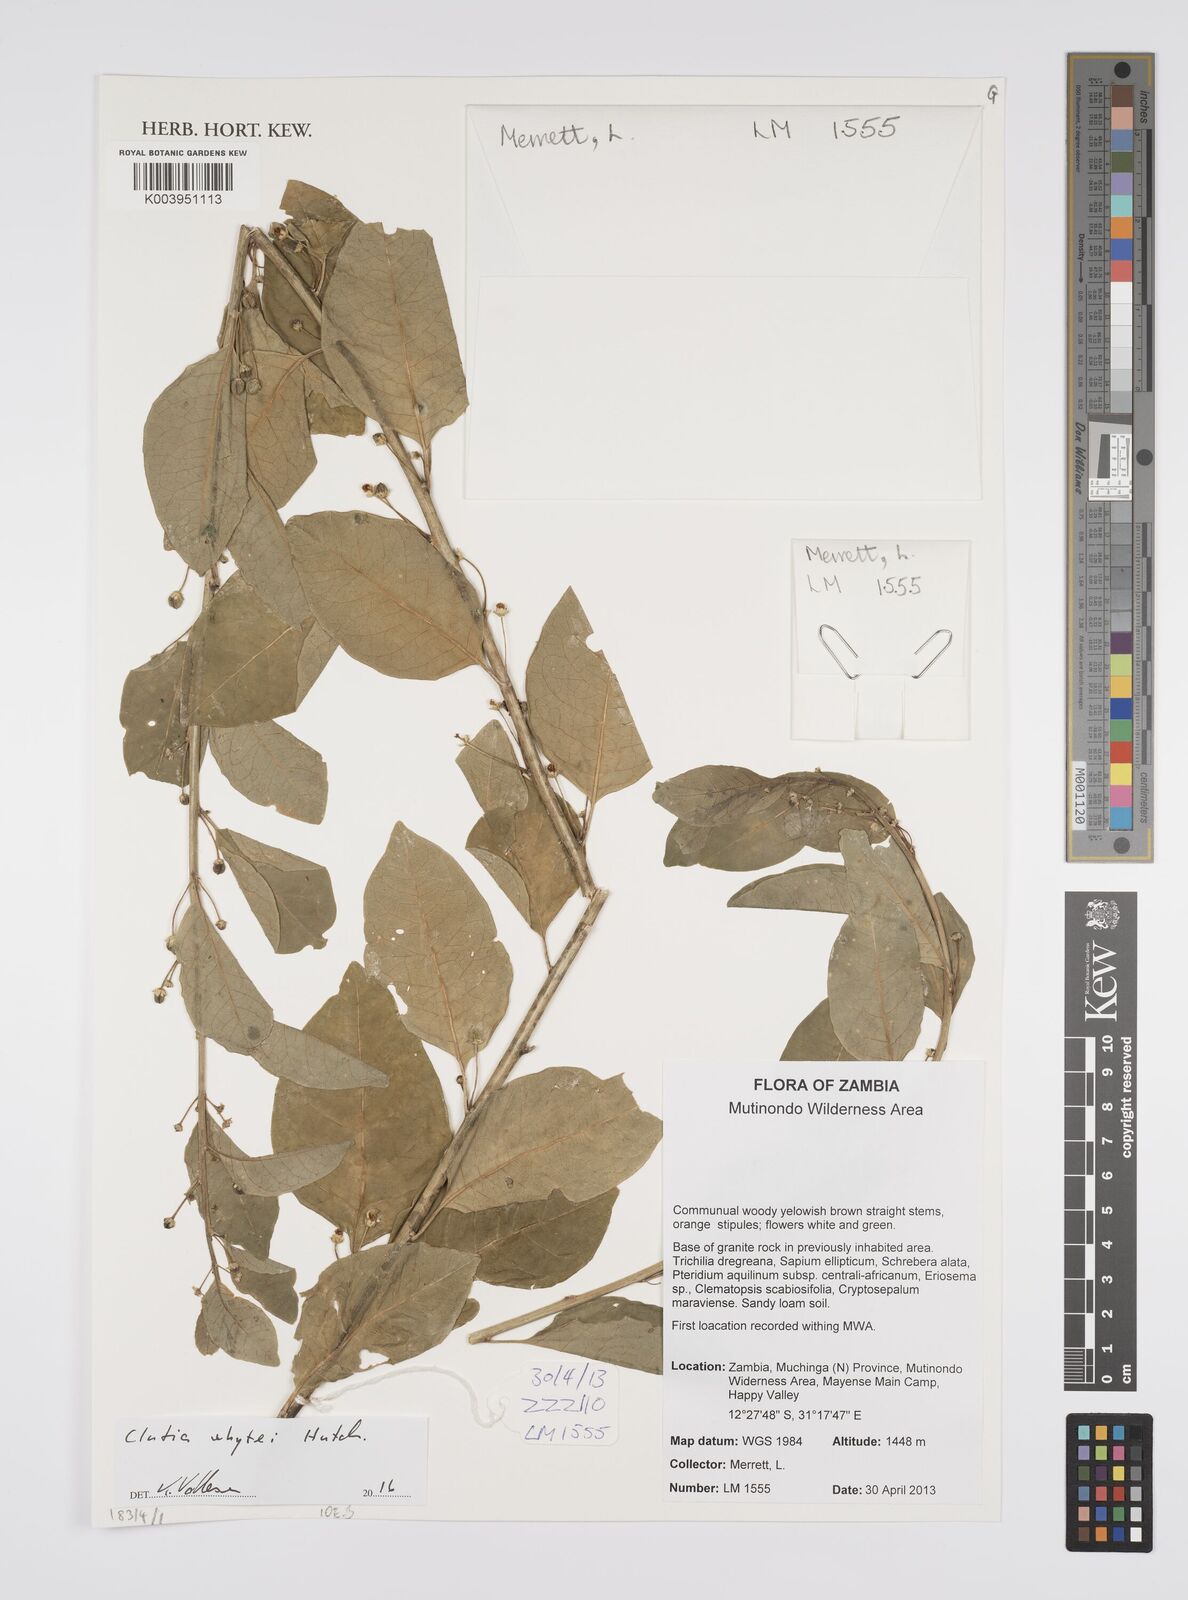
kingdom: Plantae
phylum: Tracheophyta
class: Magnoliopsida
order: Malpighiales
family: Peraceae
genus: Clutia
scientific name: Clutia
